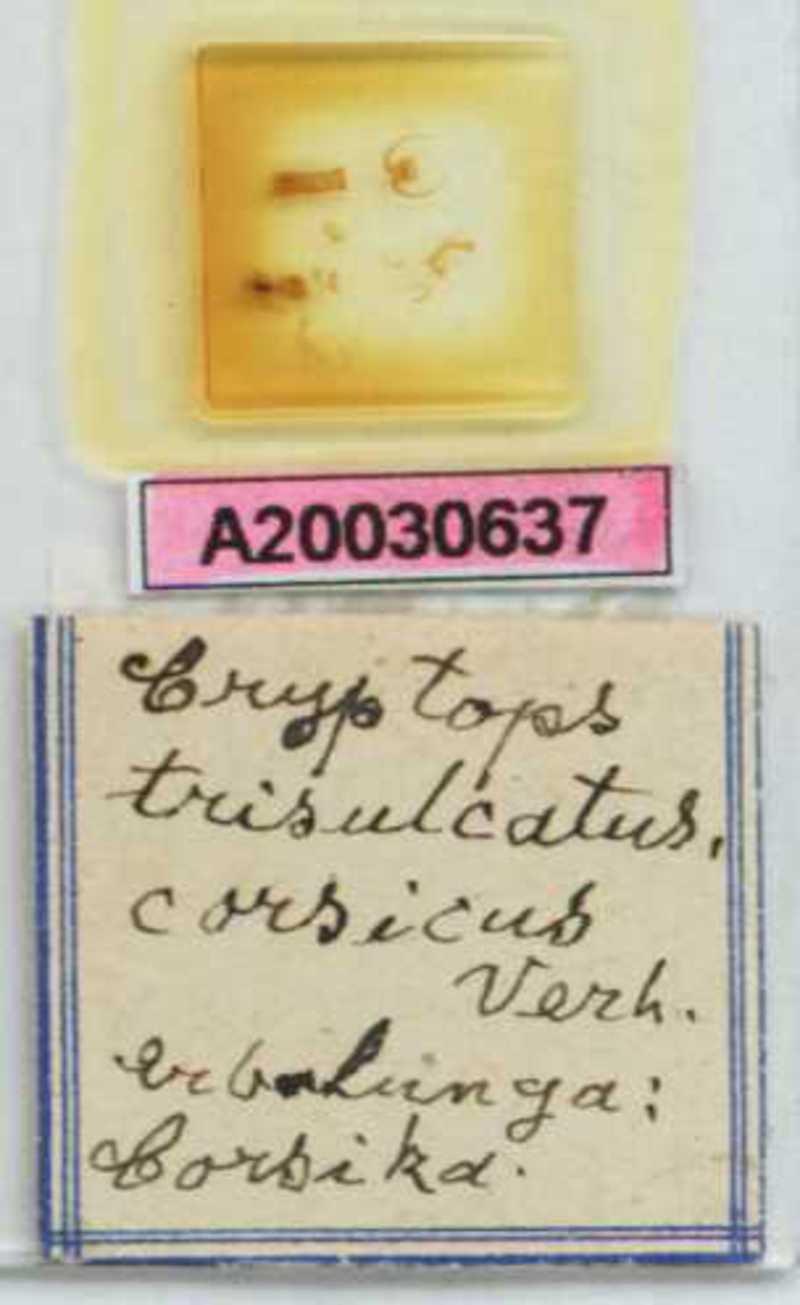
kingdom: Animalia
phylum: Arthropoda
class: Chilopoda
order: Scolopendromorpha
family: Cryptopidae
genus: Cryptops
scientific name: Cryptops trisulcatus
